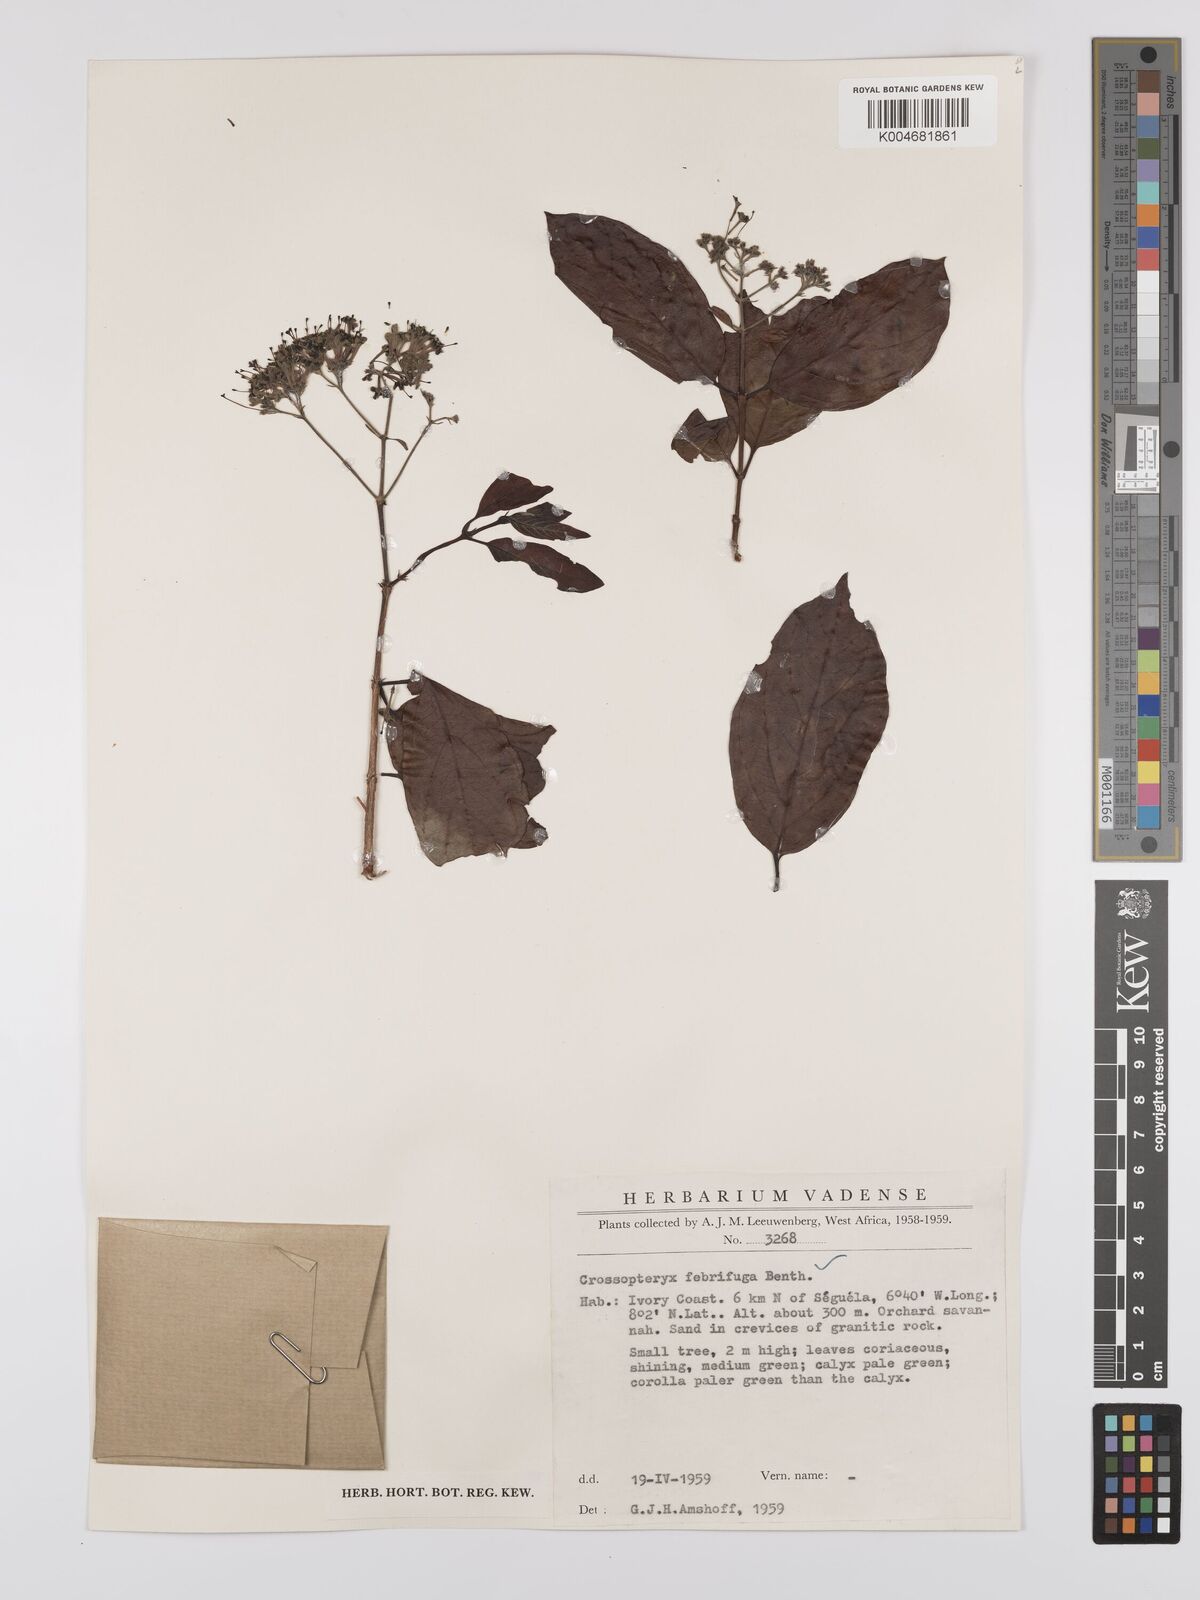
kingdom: Plantae
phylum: Tracheophyta
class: Magnoliopsida
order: Gentianales
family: Rubiaceae
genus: Crossopteryx
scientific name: Crossopteryx febrifuga
